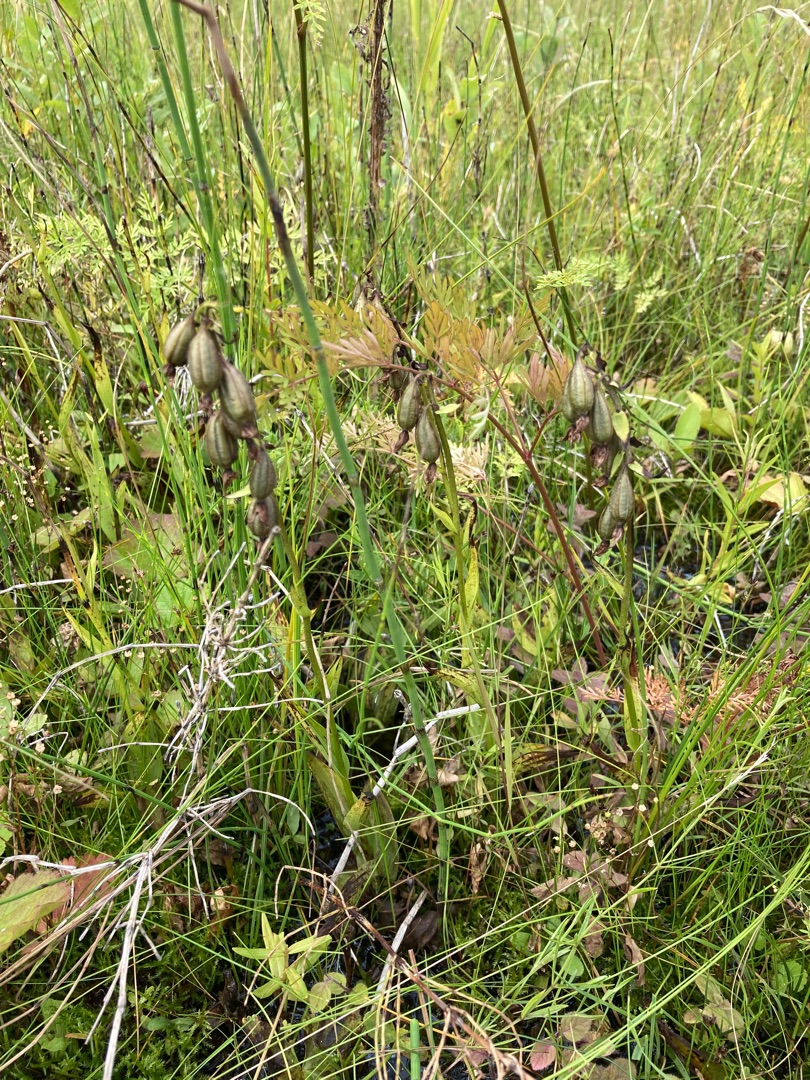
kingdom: Plantae
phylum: Tracheophyta
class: Liliopsida
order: Asparagales
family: Orchidaceae
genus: Epipactis
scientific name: Epipactis palustris
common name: Sump-hullæbe
